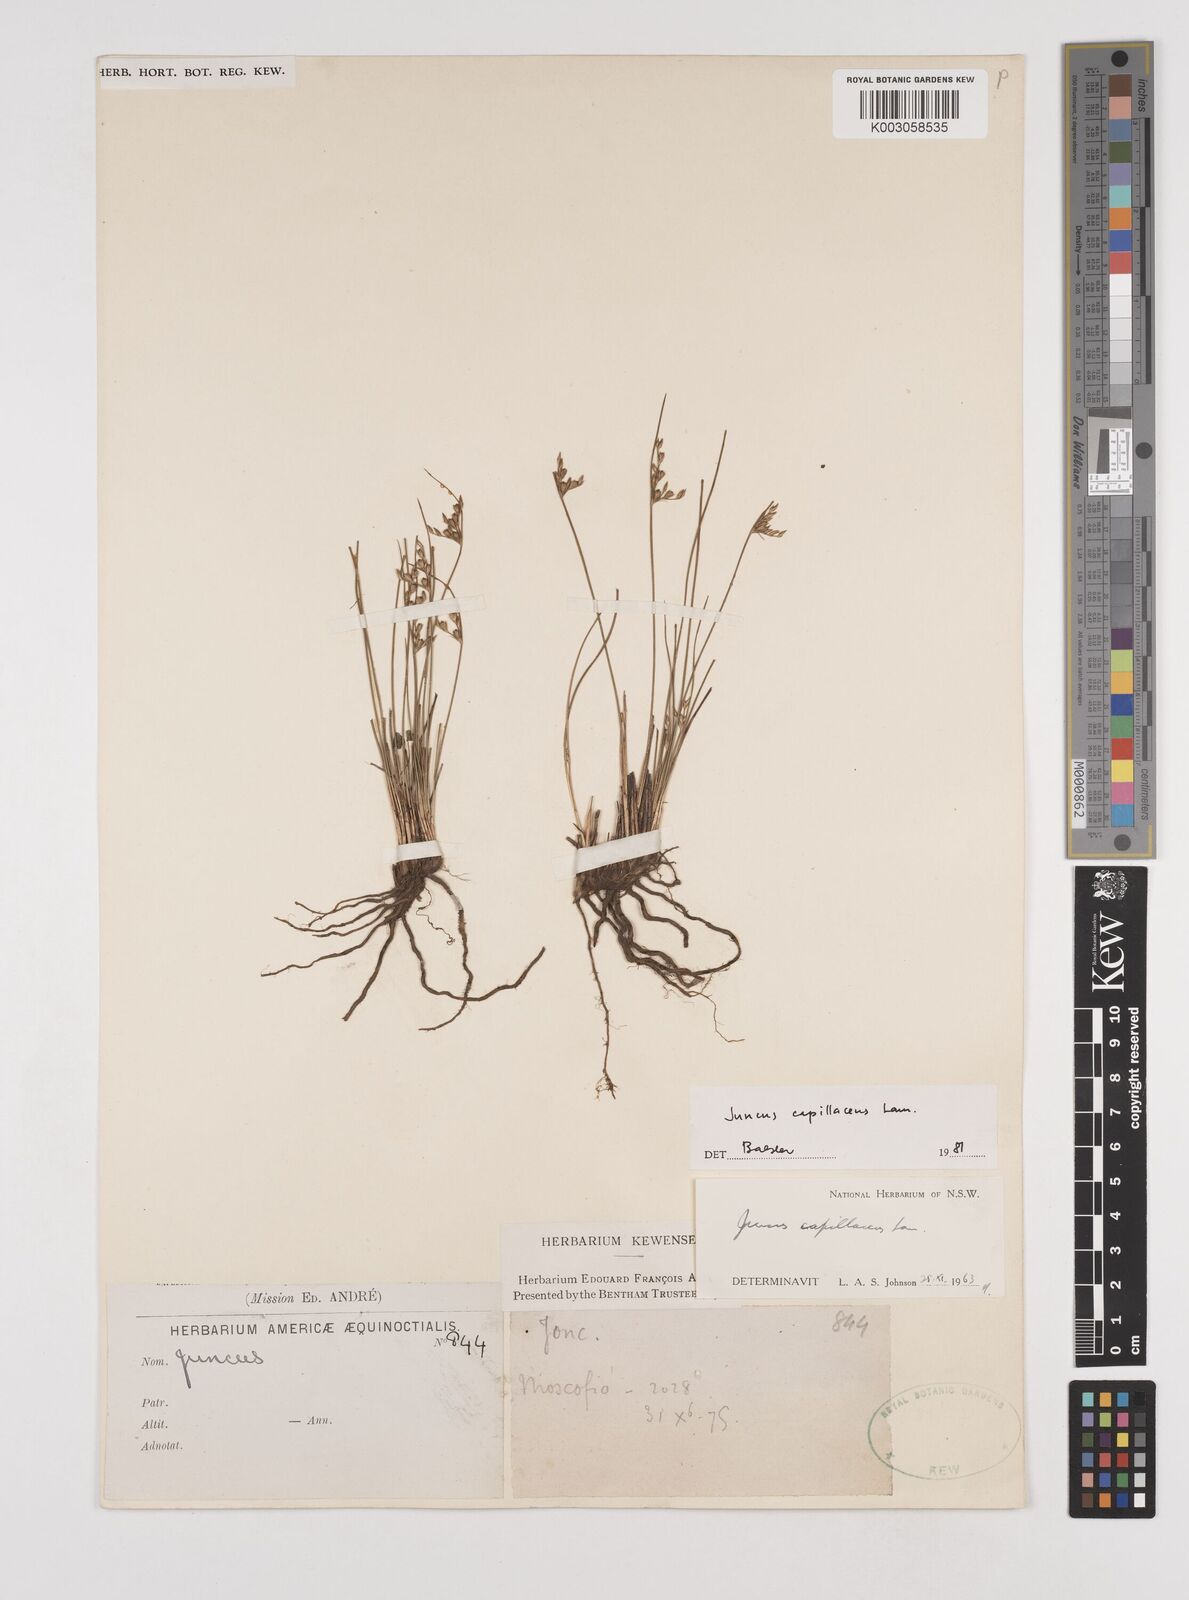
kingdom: Plantae
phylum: Tracheophyta
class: Liliopsida
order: Poales
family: Juncaceae
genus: Juncus
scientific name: Juncus capillaceus
